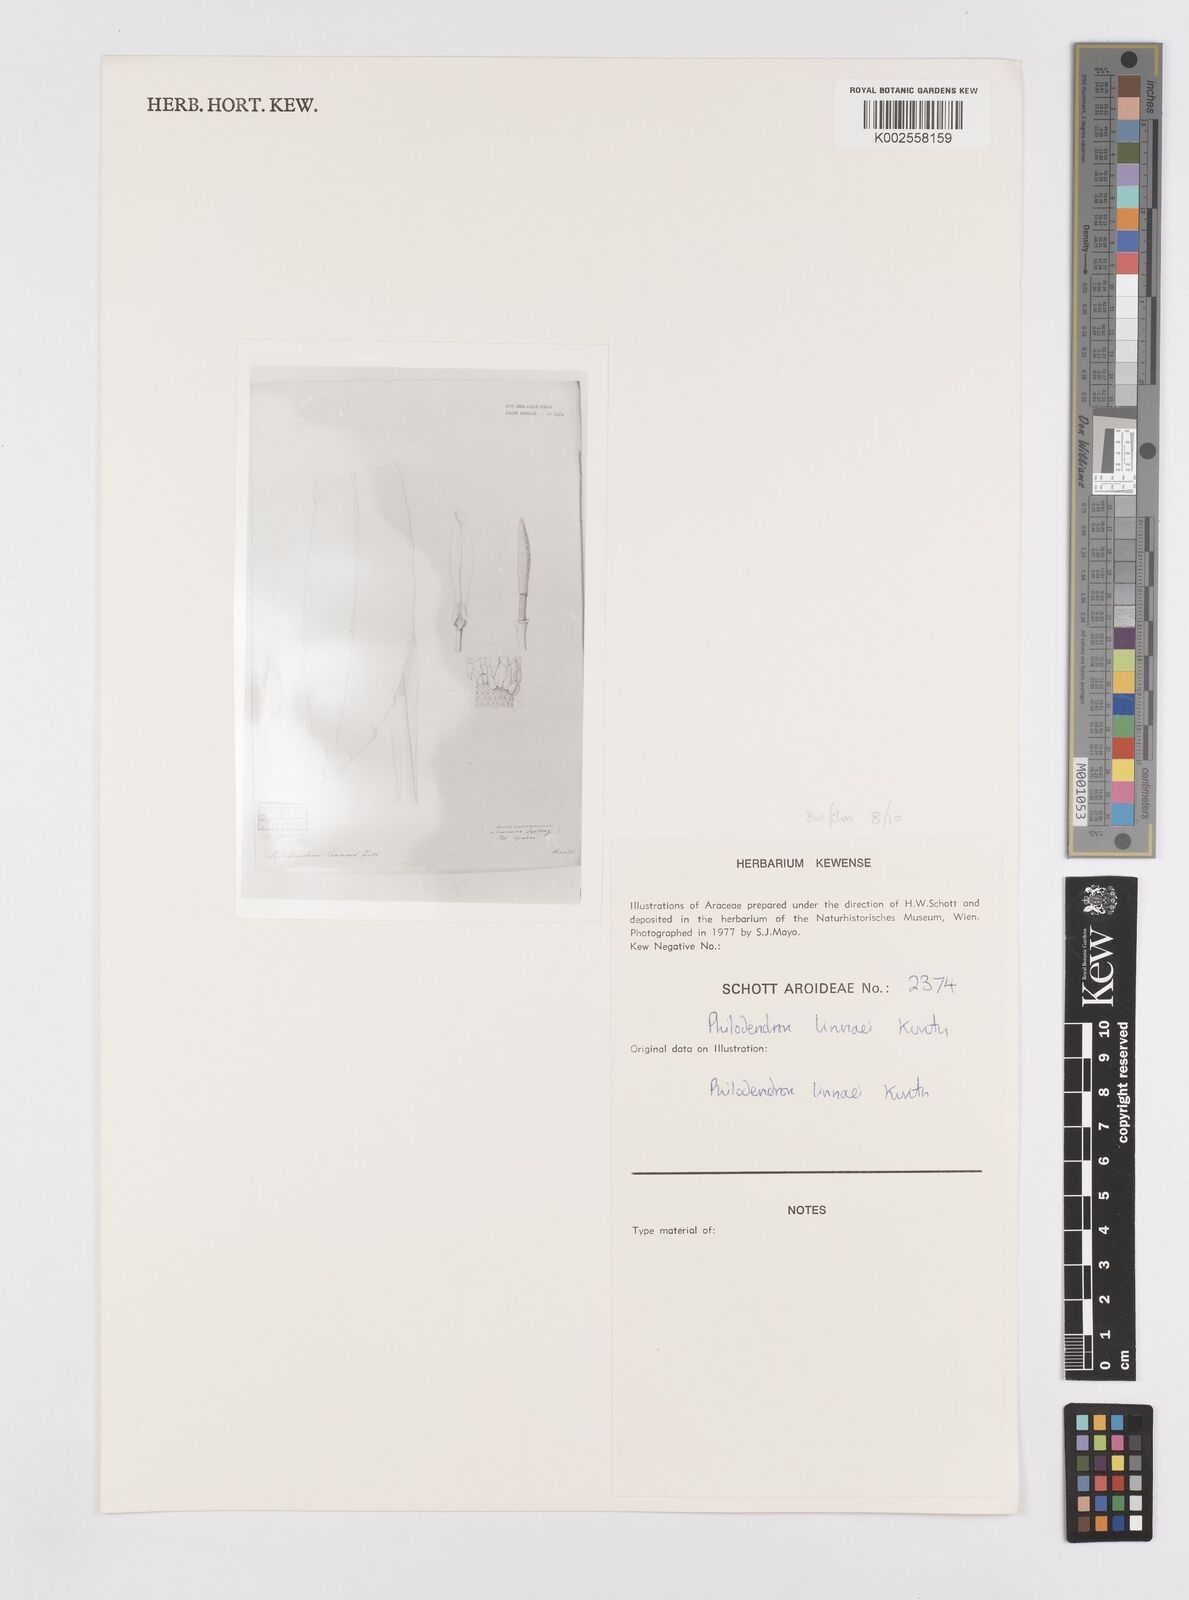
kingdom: Plantae
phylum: Tracheophyta
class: Liliopsida
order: Alismatales
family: Araceae
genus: Philodendron
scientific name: Philodendron linnaei
